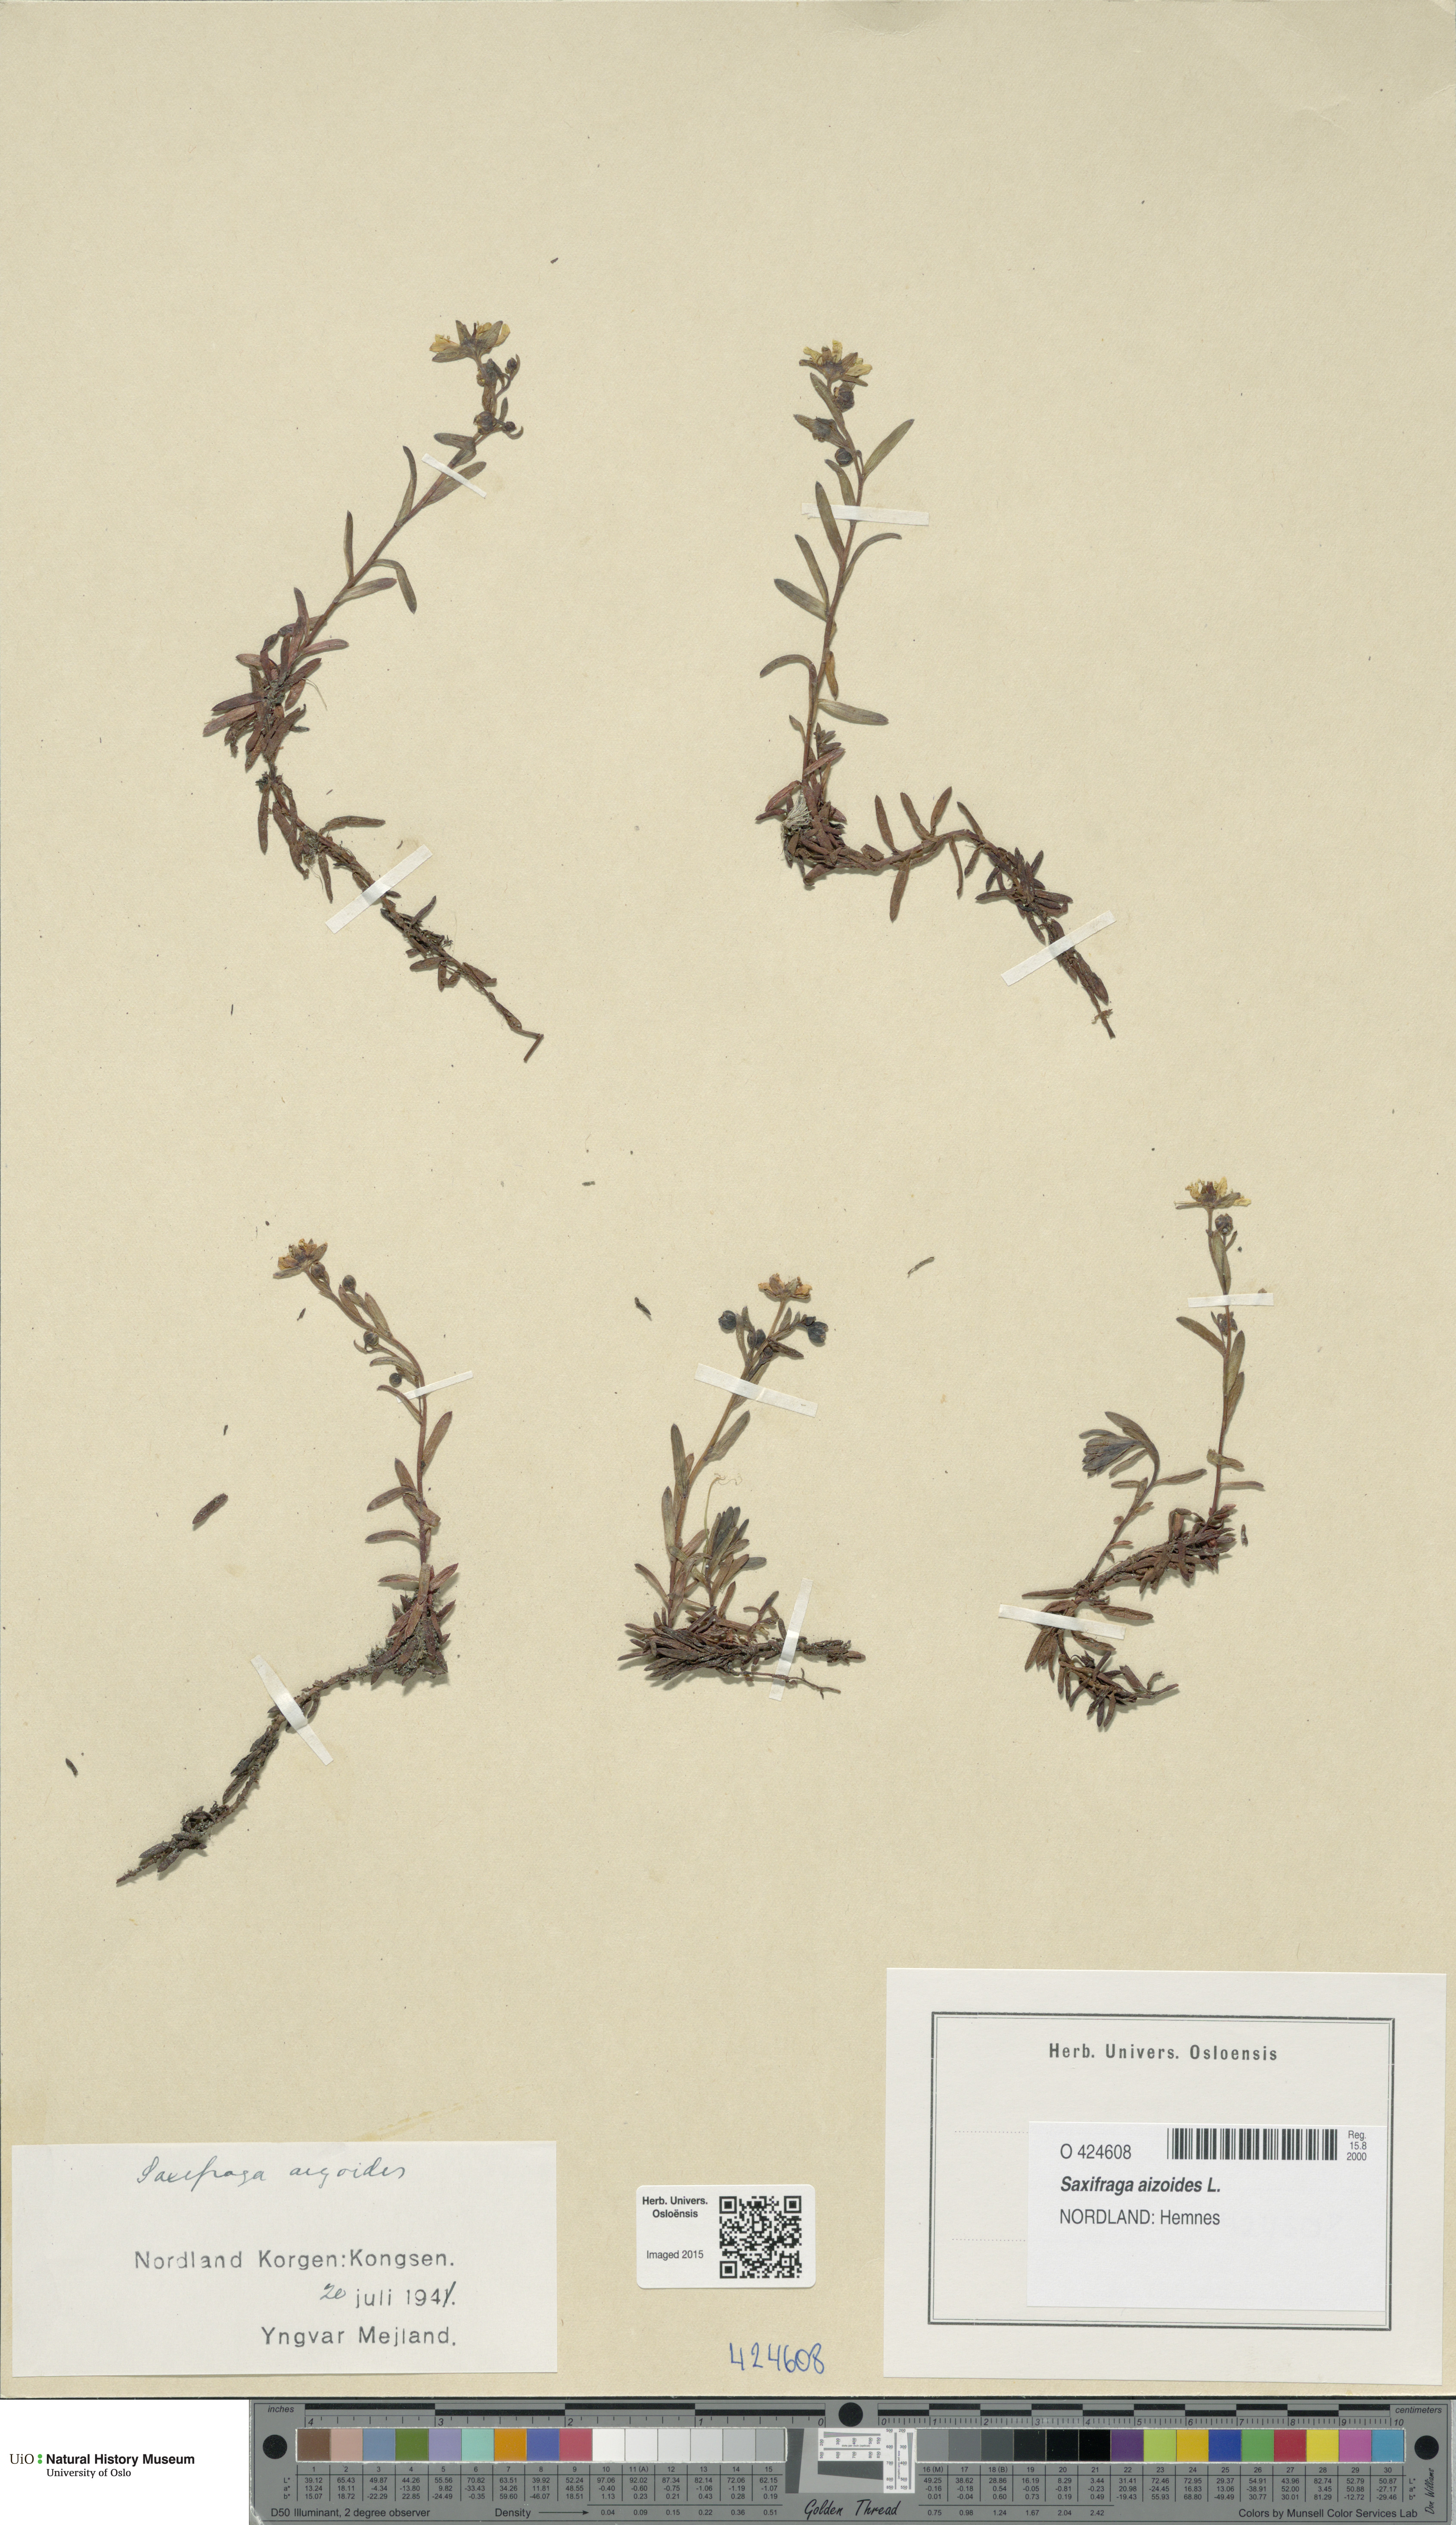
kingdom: Plantae
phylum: Tracheophyta
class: Magnoliopsida
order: Saxifragales
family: Saxifragaceae
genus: Saxifraga
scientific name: Saxifraga aizoides
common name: Yellow mountain saxifrage
